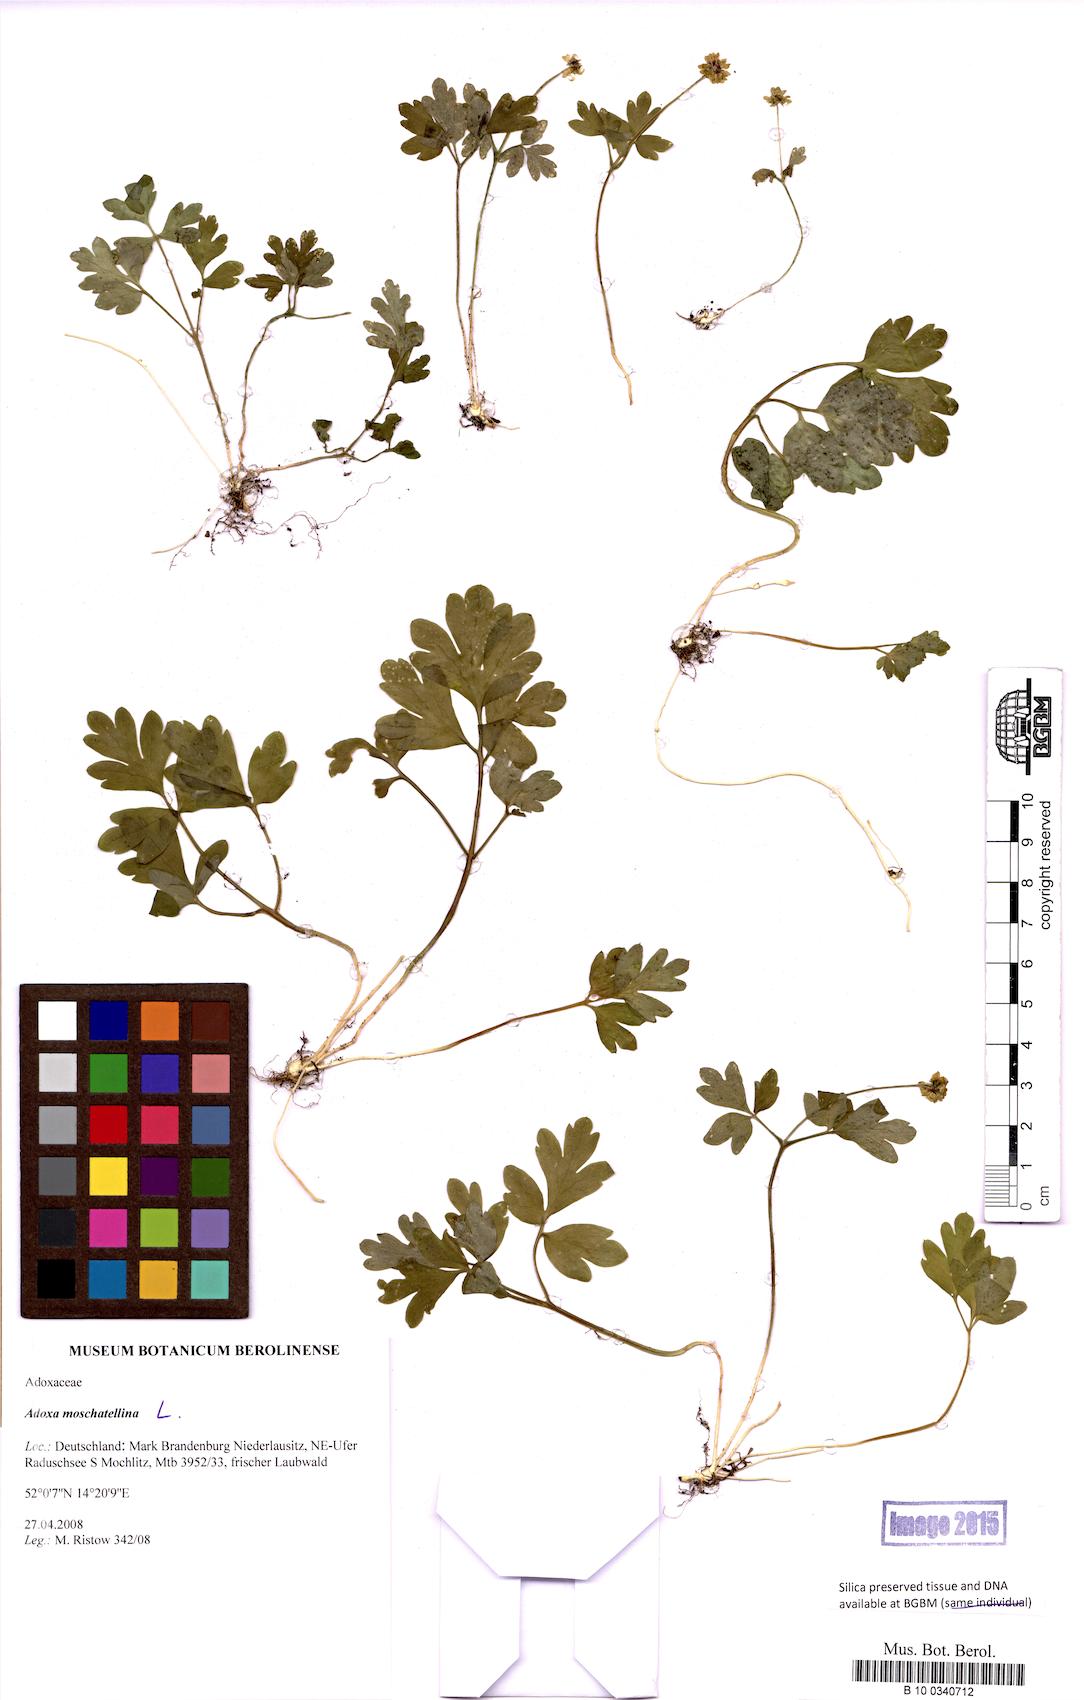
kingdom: Plantae
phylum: Tracheophyta
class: Magnoliopsida
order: Dipsacales
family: Viburnaceae
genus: Adoxa
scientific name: Adoxa moschatellina
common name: Moschatel
